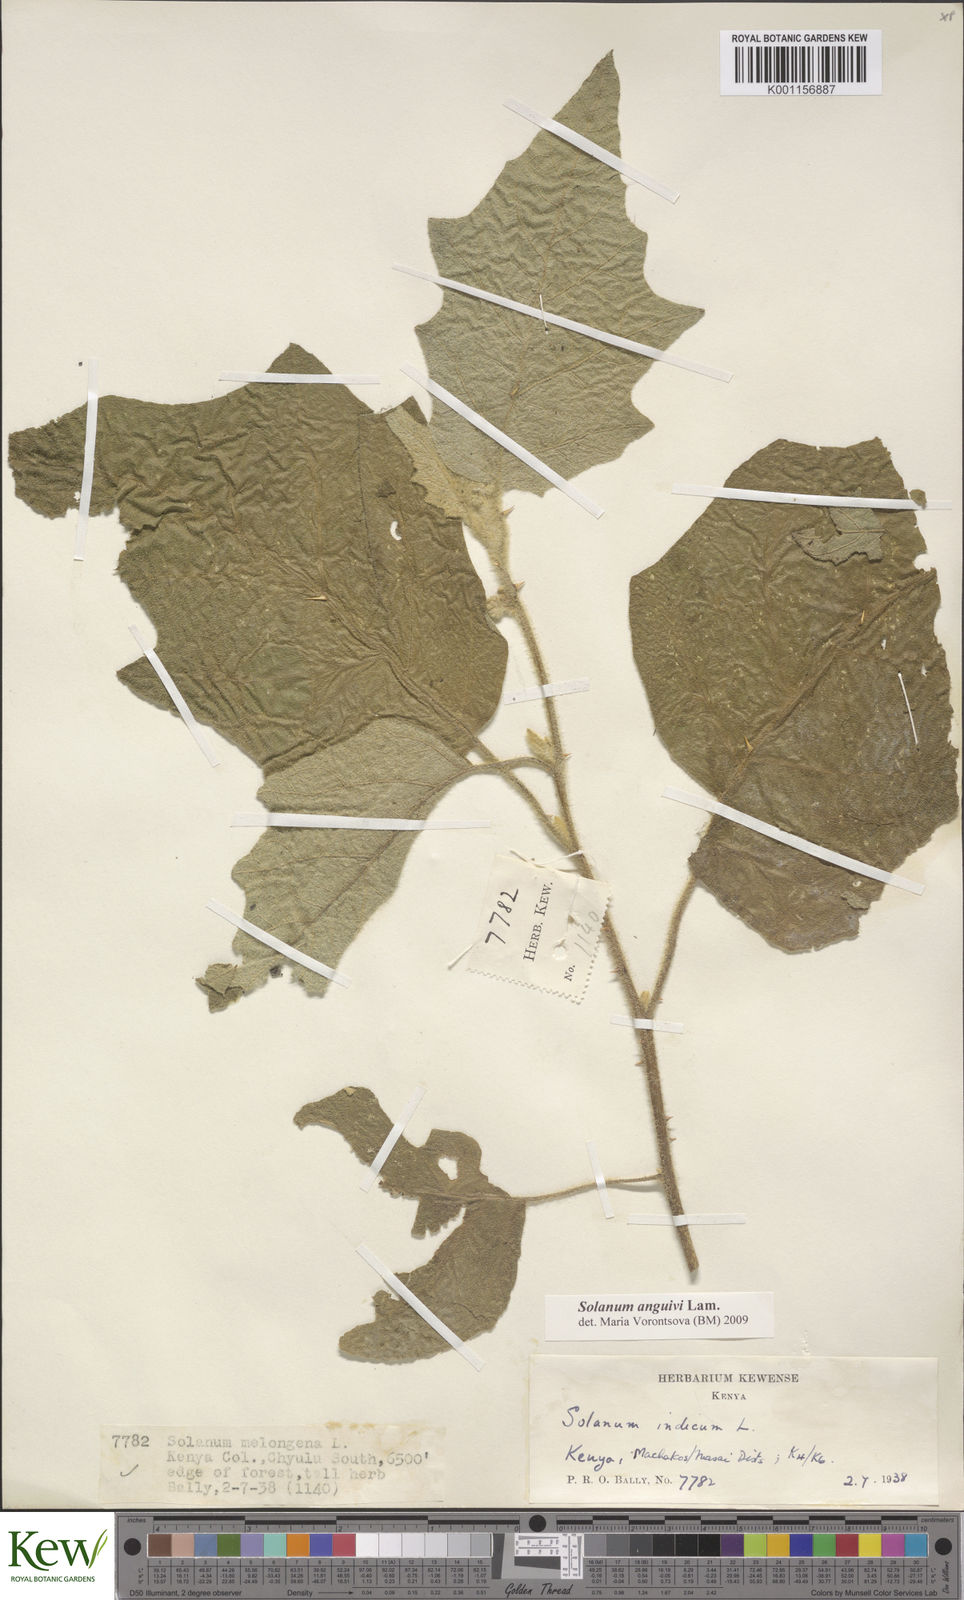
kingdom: Plantae
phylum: Tracheophyta
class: Magnoliopsida
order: Solanales
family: Solanaceae
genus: Solanum
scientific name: Solanum anguivi
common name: Forest bitterberry
